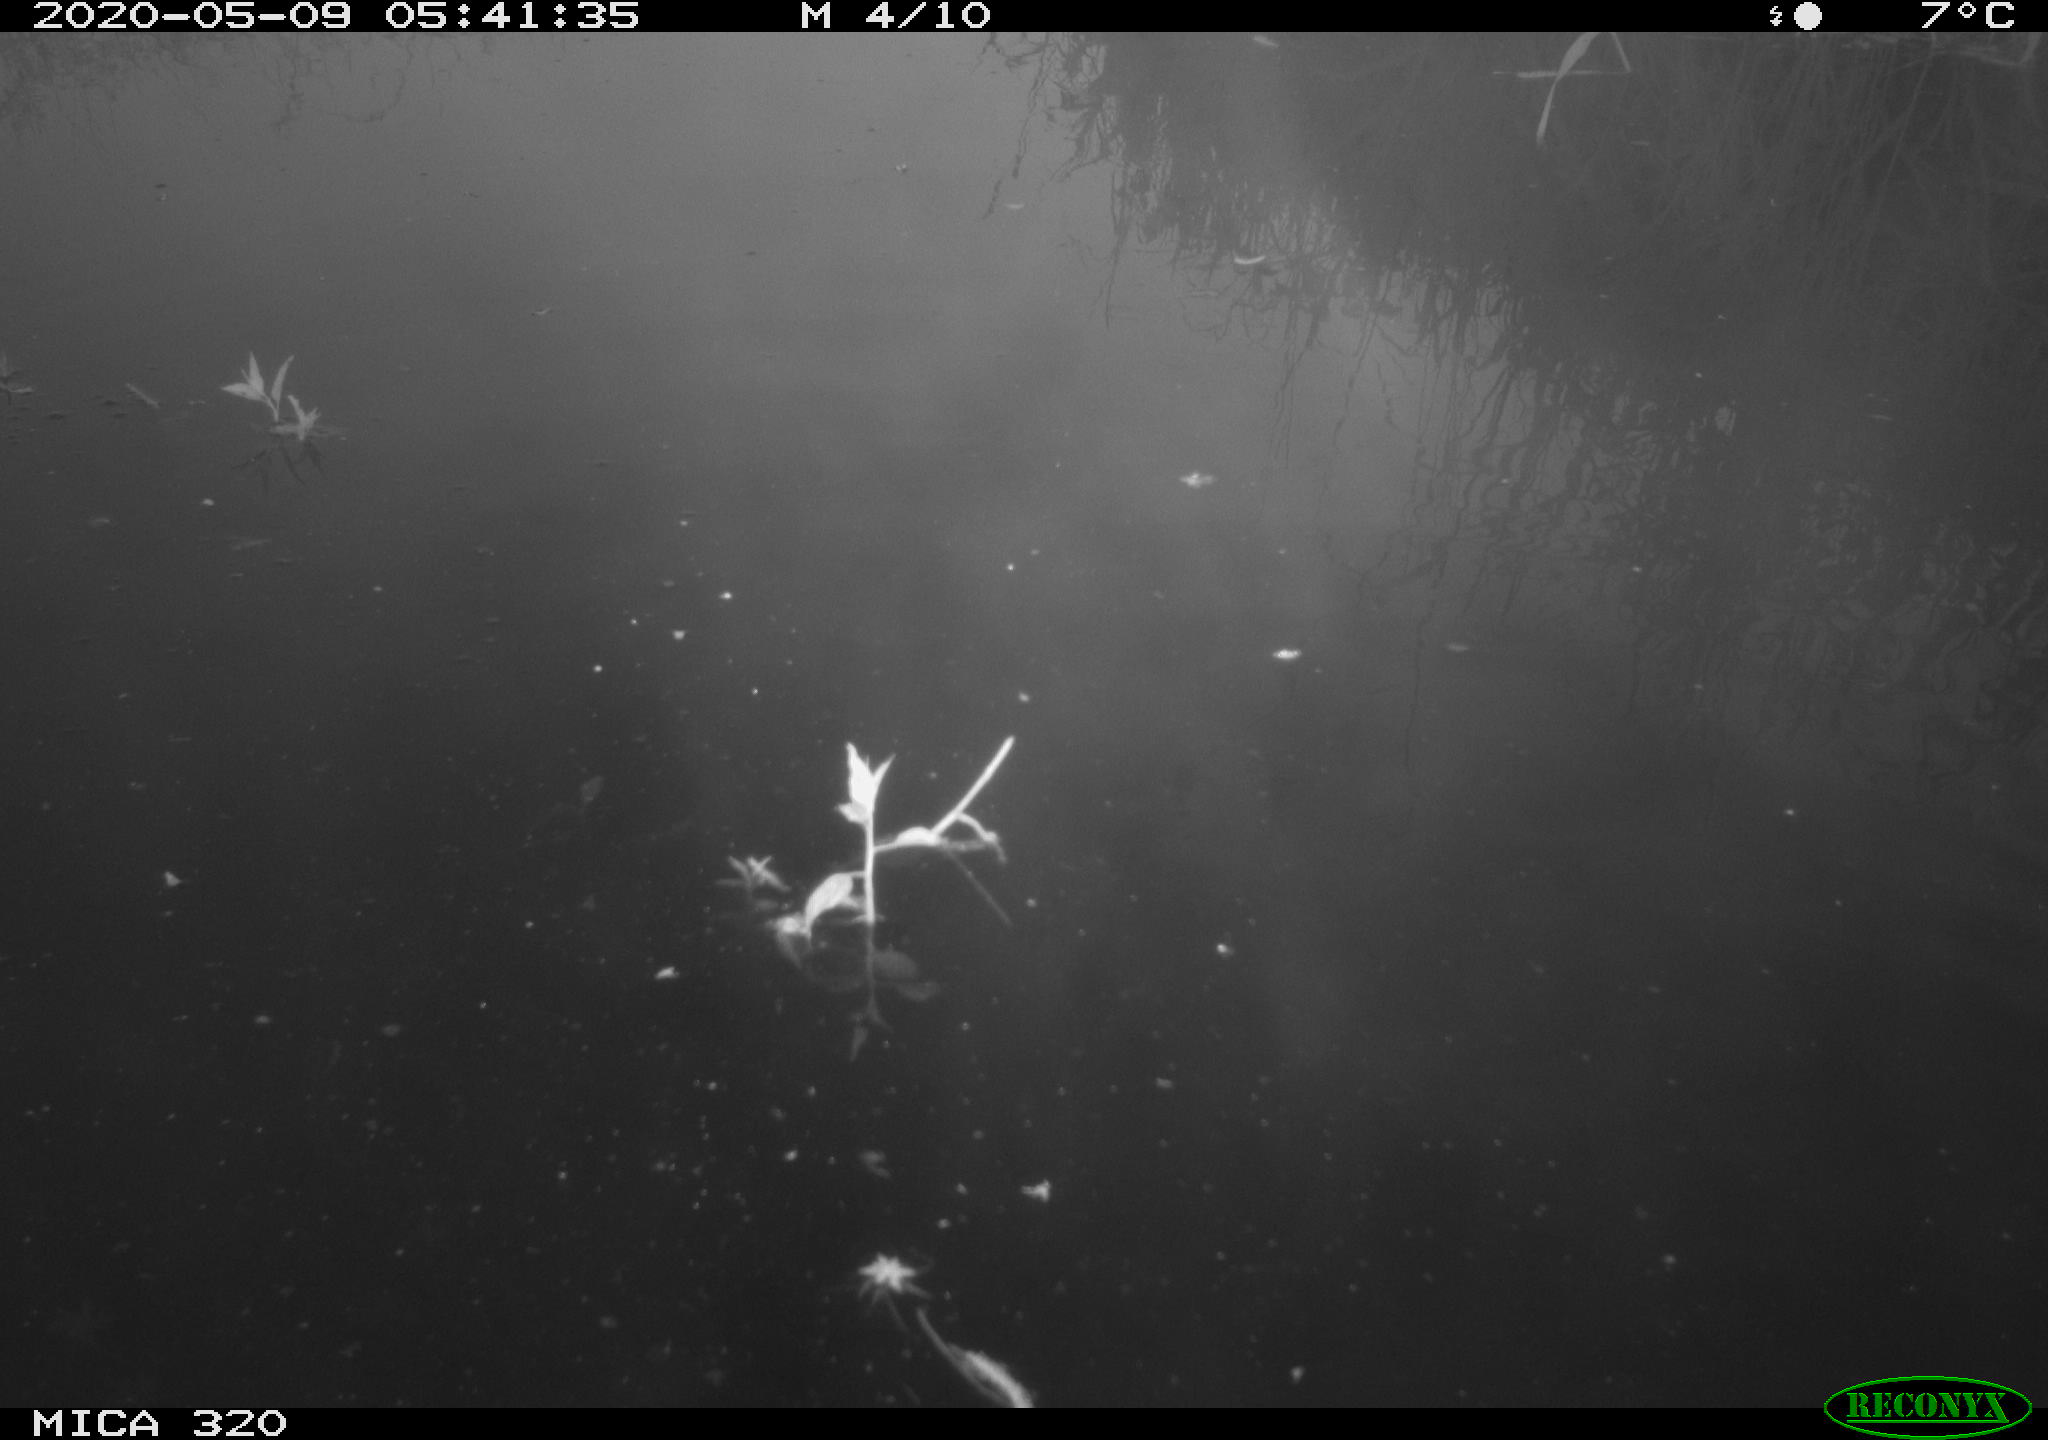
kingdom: Animalia
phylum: Chordata
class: Aves
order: Gruiformes
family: Rallidae
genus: Gallinula
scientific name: Gallinula chloropus
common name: Common moorhen
